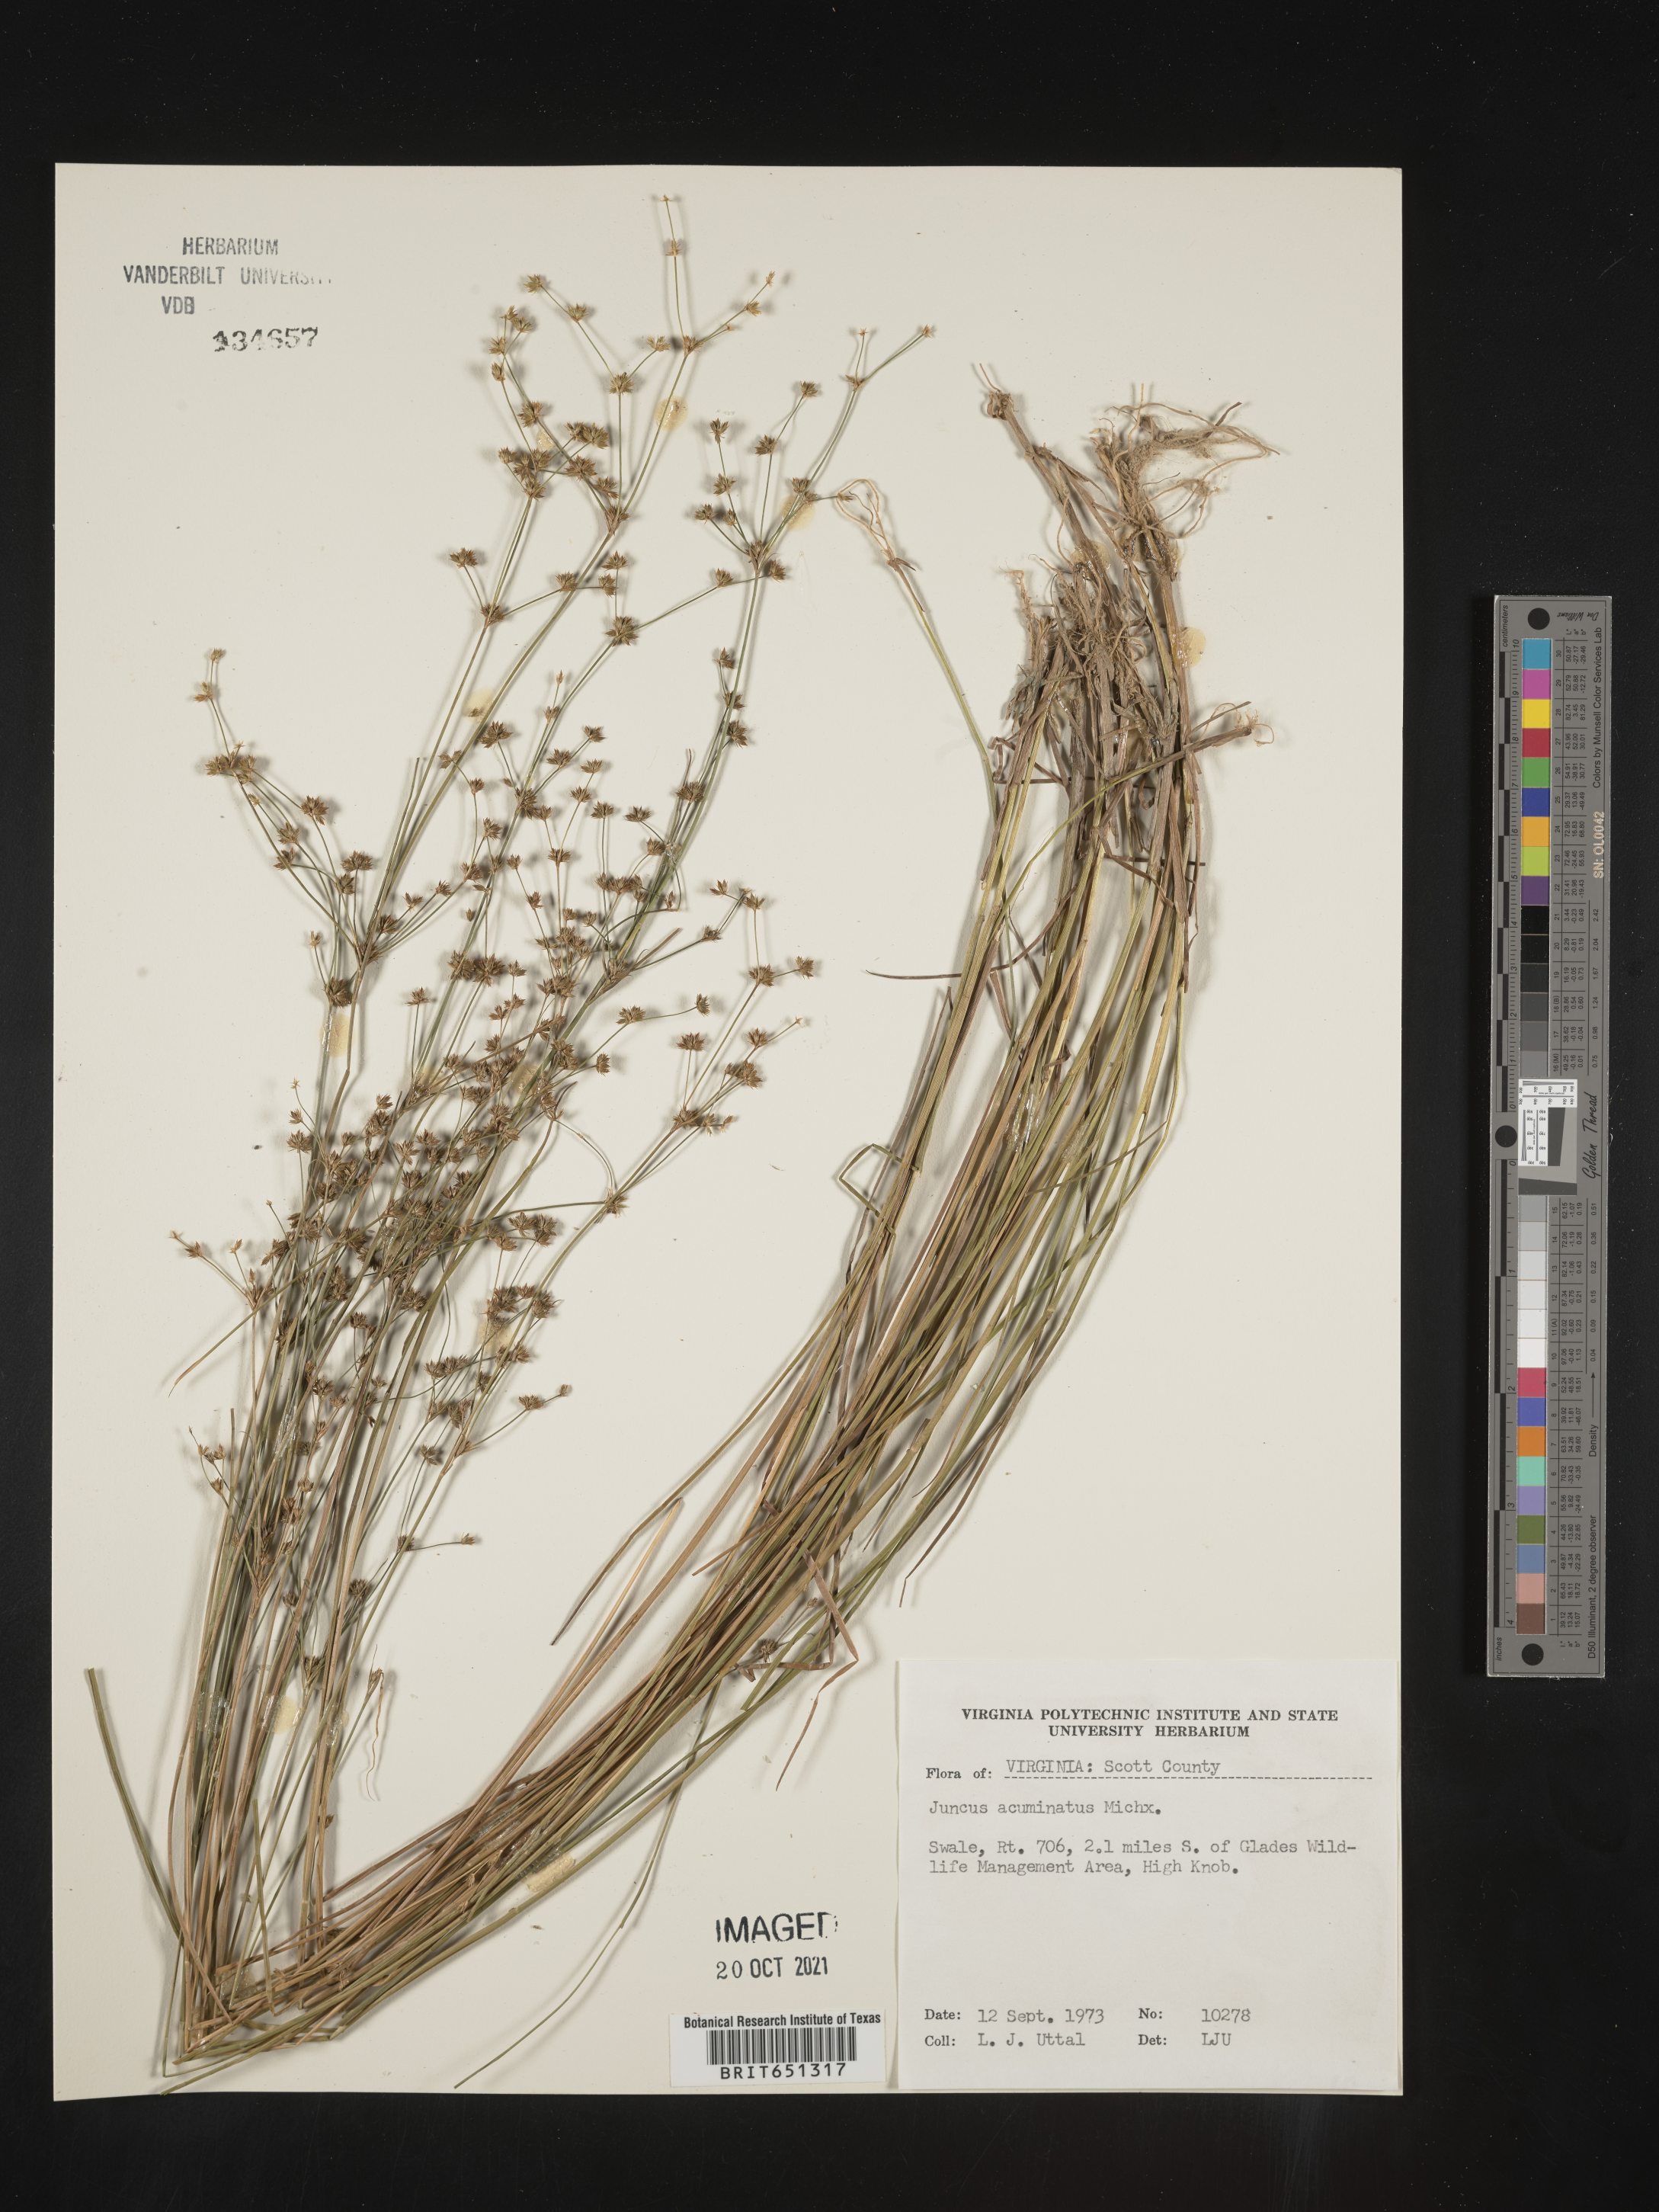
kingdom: Plantae
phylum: Tracheophyta
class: Liliopsida
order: Poales
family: Juncaceae
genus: Juncus
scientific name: Juncus acuminatus
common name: Knotty-leaved rush
